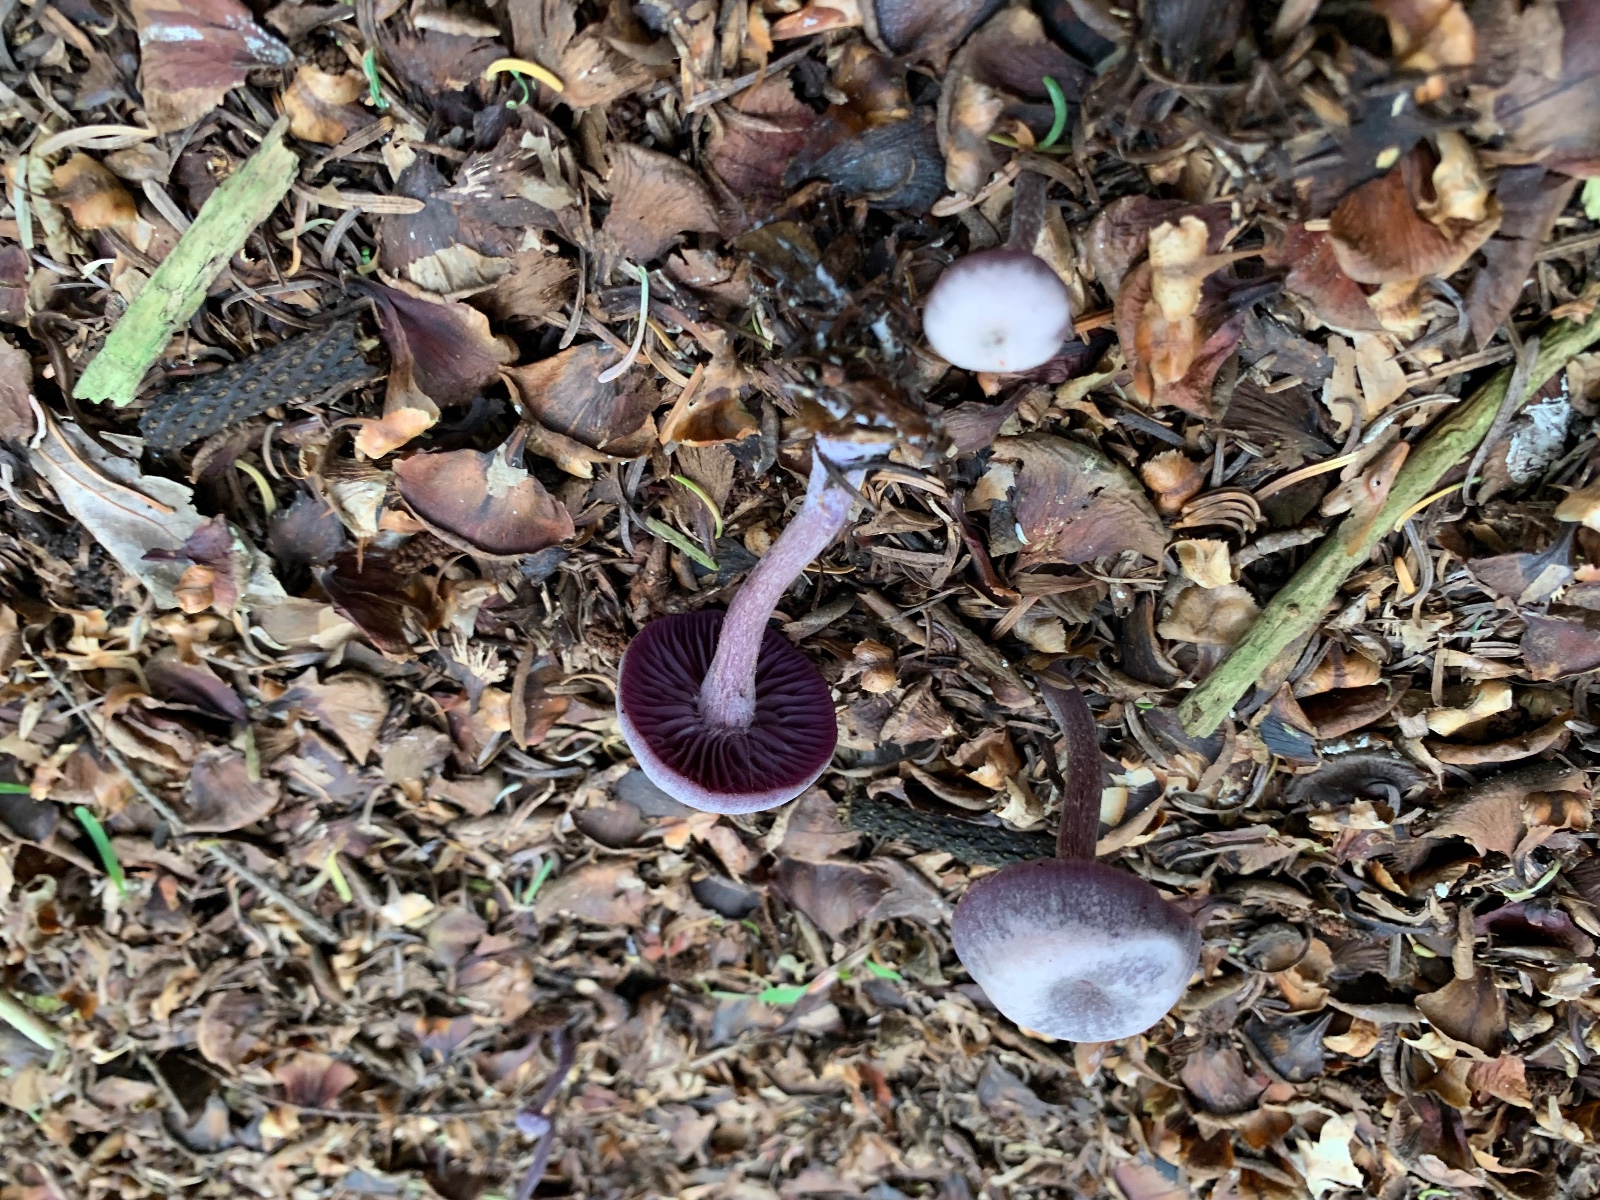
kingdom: Fungi
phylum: Basidiomycota
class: Agaricomycetes
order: Agaricales
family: Hydnangiaceae
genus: Laccaria
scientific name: Laccaria amethystina
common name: violet ametysthat
